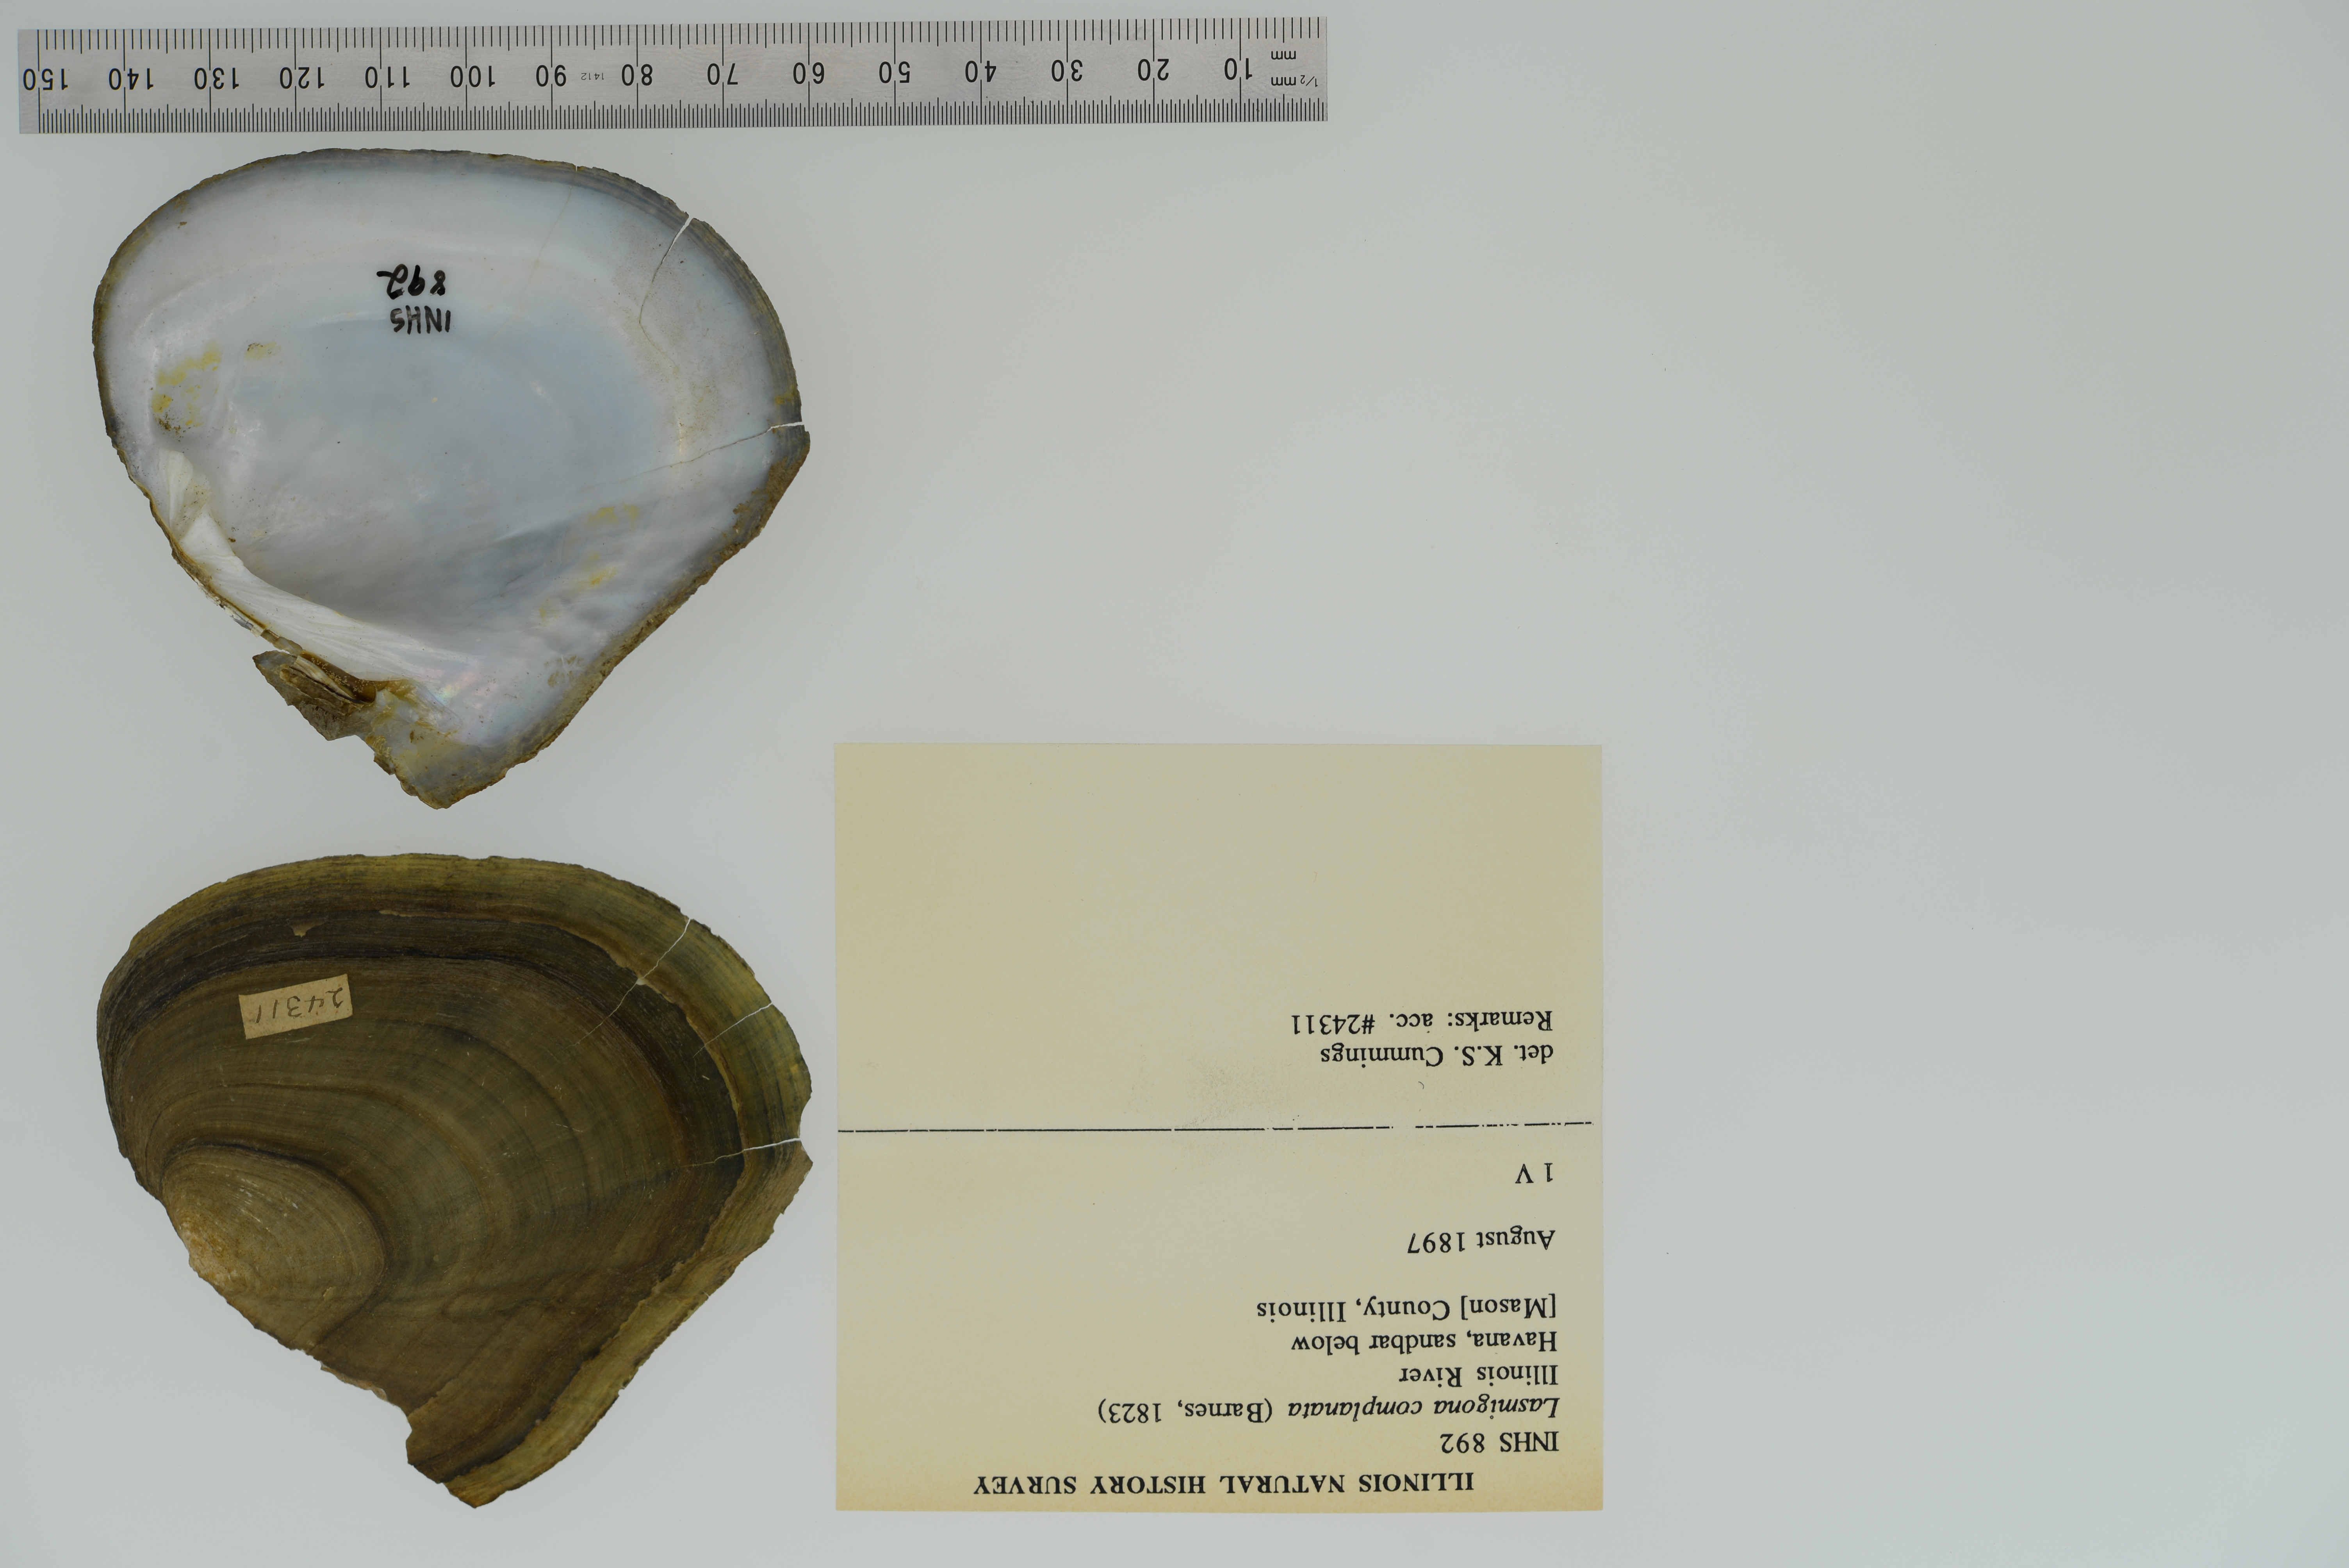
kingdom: Animalia
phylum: Mollusca
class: Bivalvia
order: Unionida
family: Unionidae
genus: Lasmigona
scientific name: Lasmigona complanata
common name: White heelsplitter
